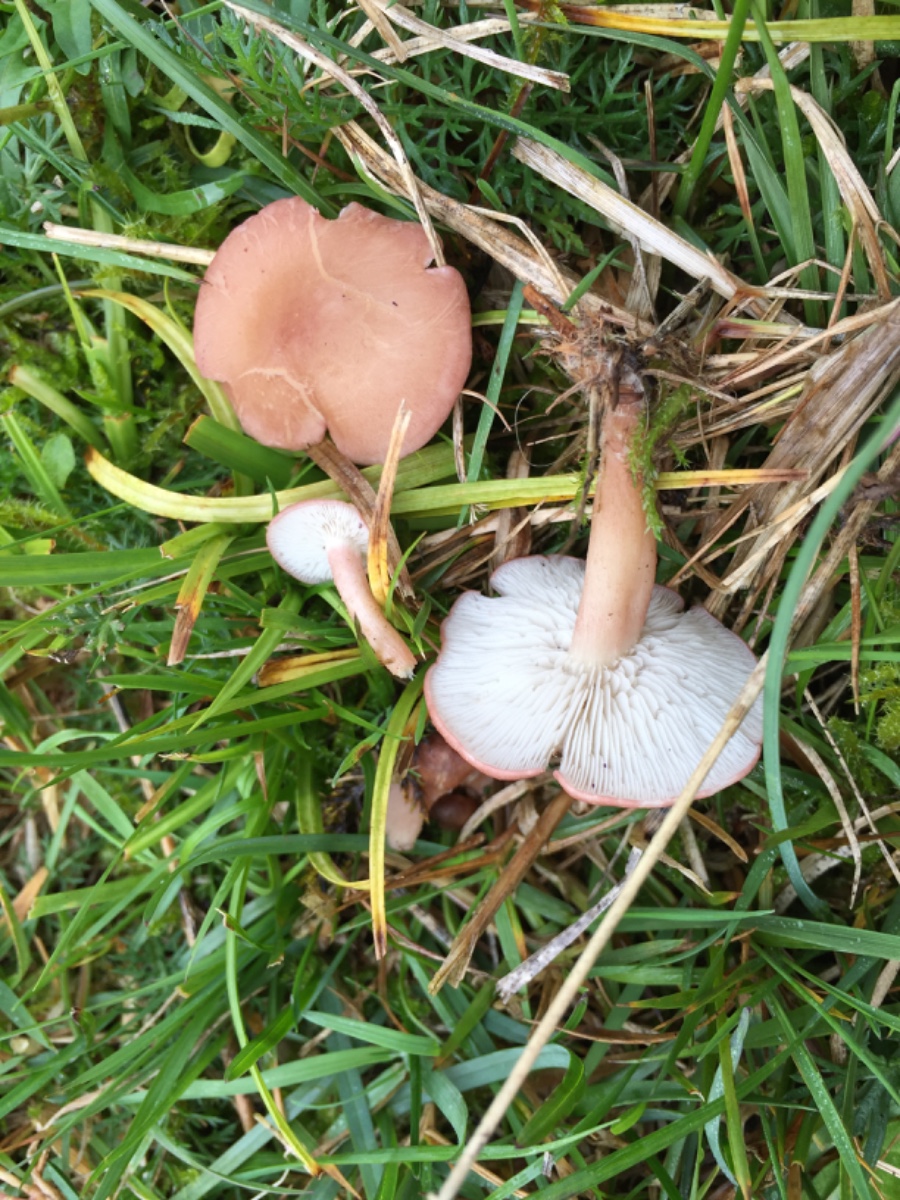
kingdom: Fungi
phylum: Basidiomycota
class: Agaricomycetes
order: Agaricales
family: Lyophyllaceae
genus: Calocybe
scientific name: Calocybe carnea
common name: rosa fagerhat
